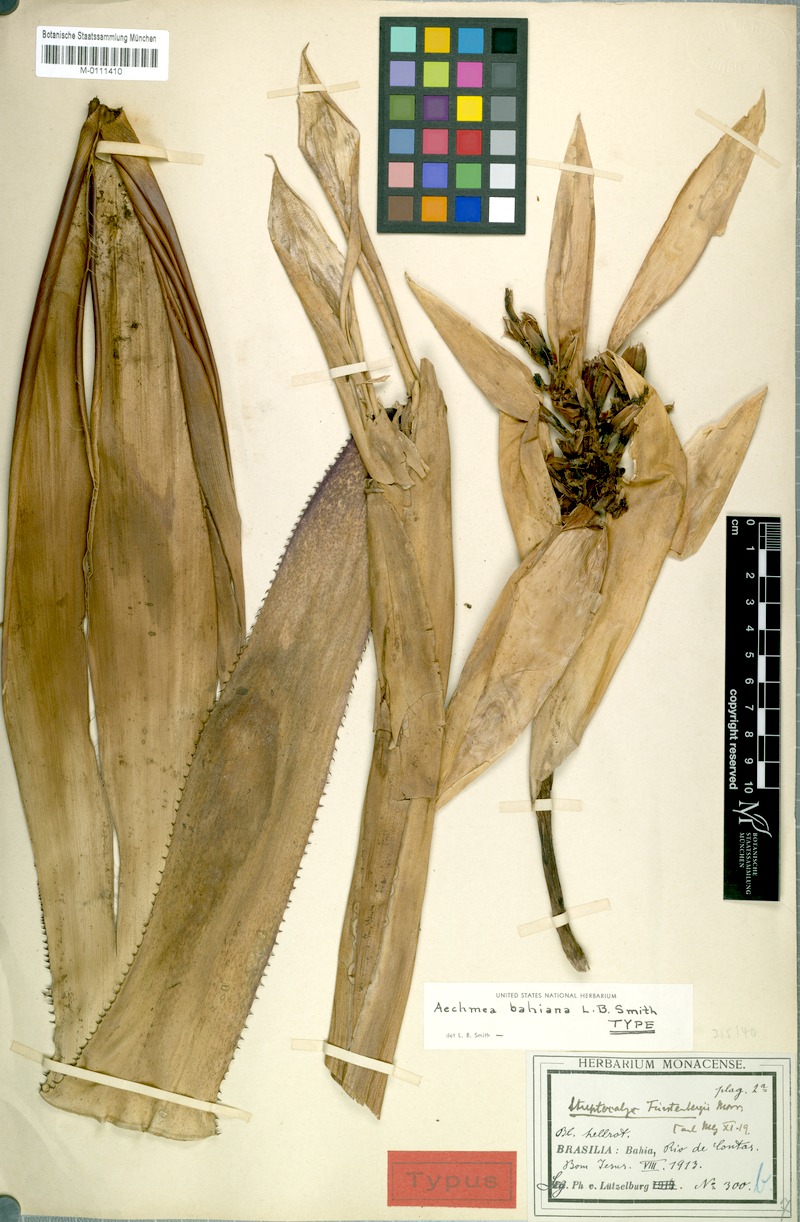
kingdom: Plantae
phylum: Tracheophyta
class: Liliopsida
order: Poales
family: Bromeliaceae
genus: Aechmea
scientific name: Aechmea bahiana
